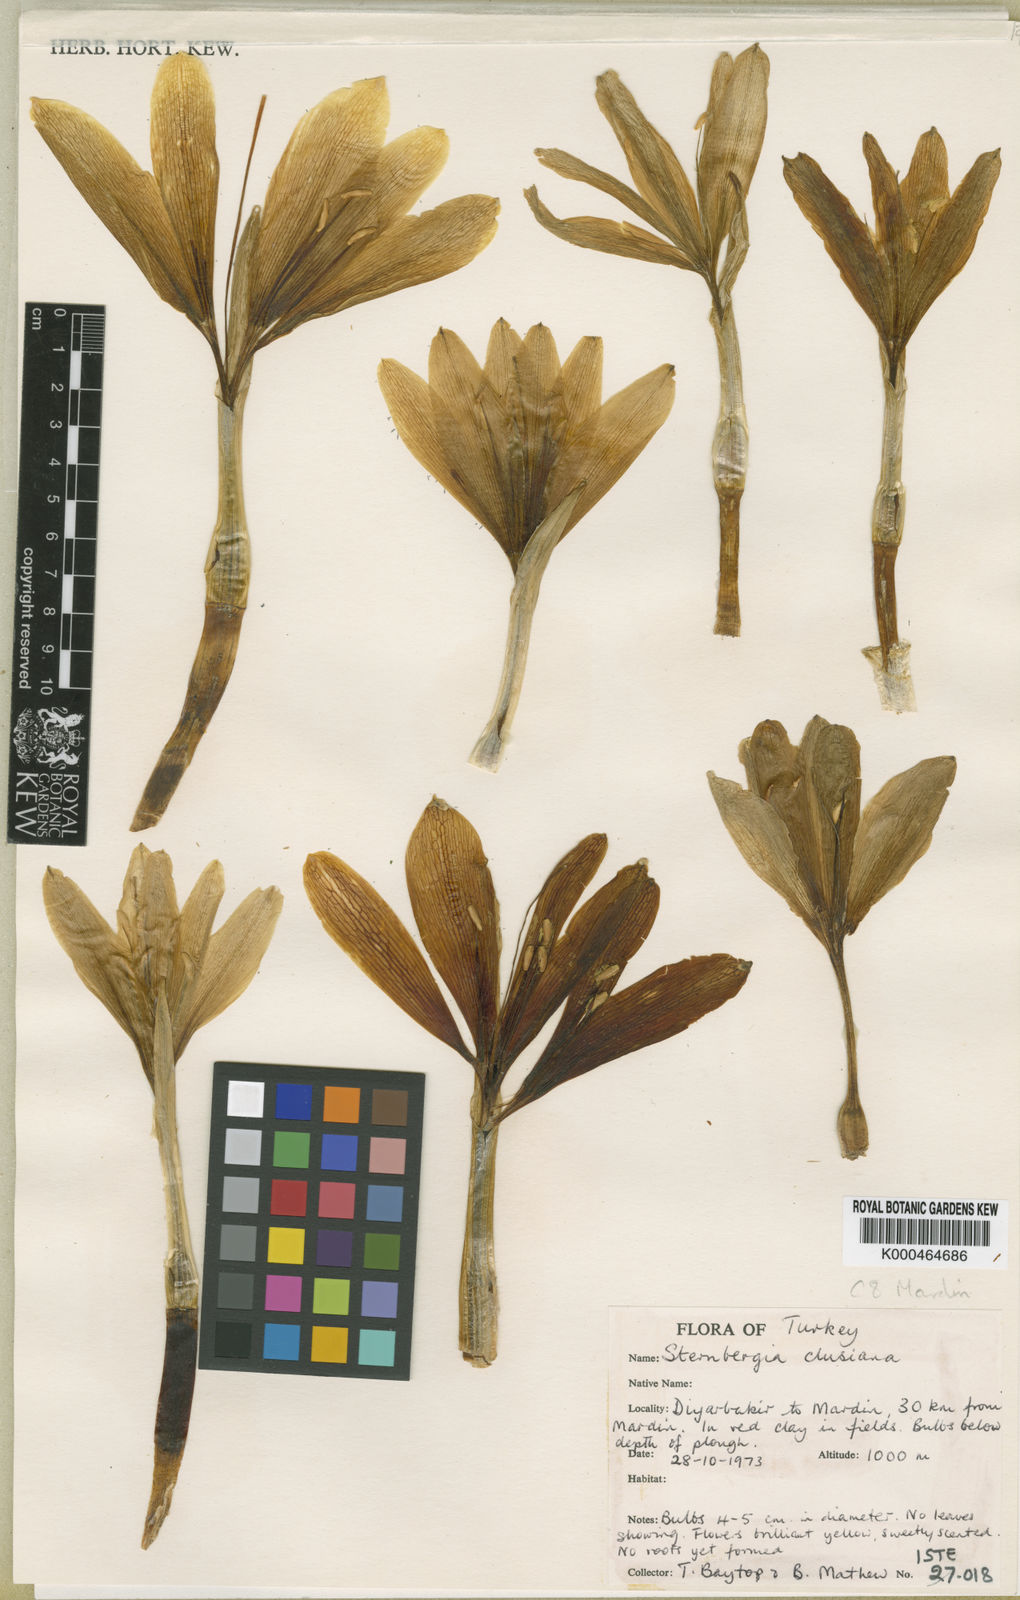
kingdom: Plantae
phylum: Tracheophyta
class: Liliopsida
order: Asparagales
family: Amaryllidaceae
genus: Sternbergia
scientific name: Sternbergia
